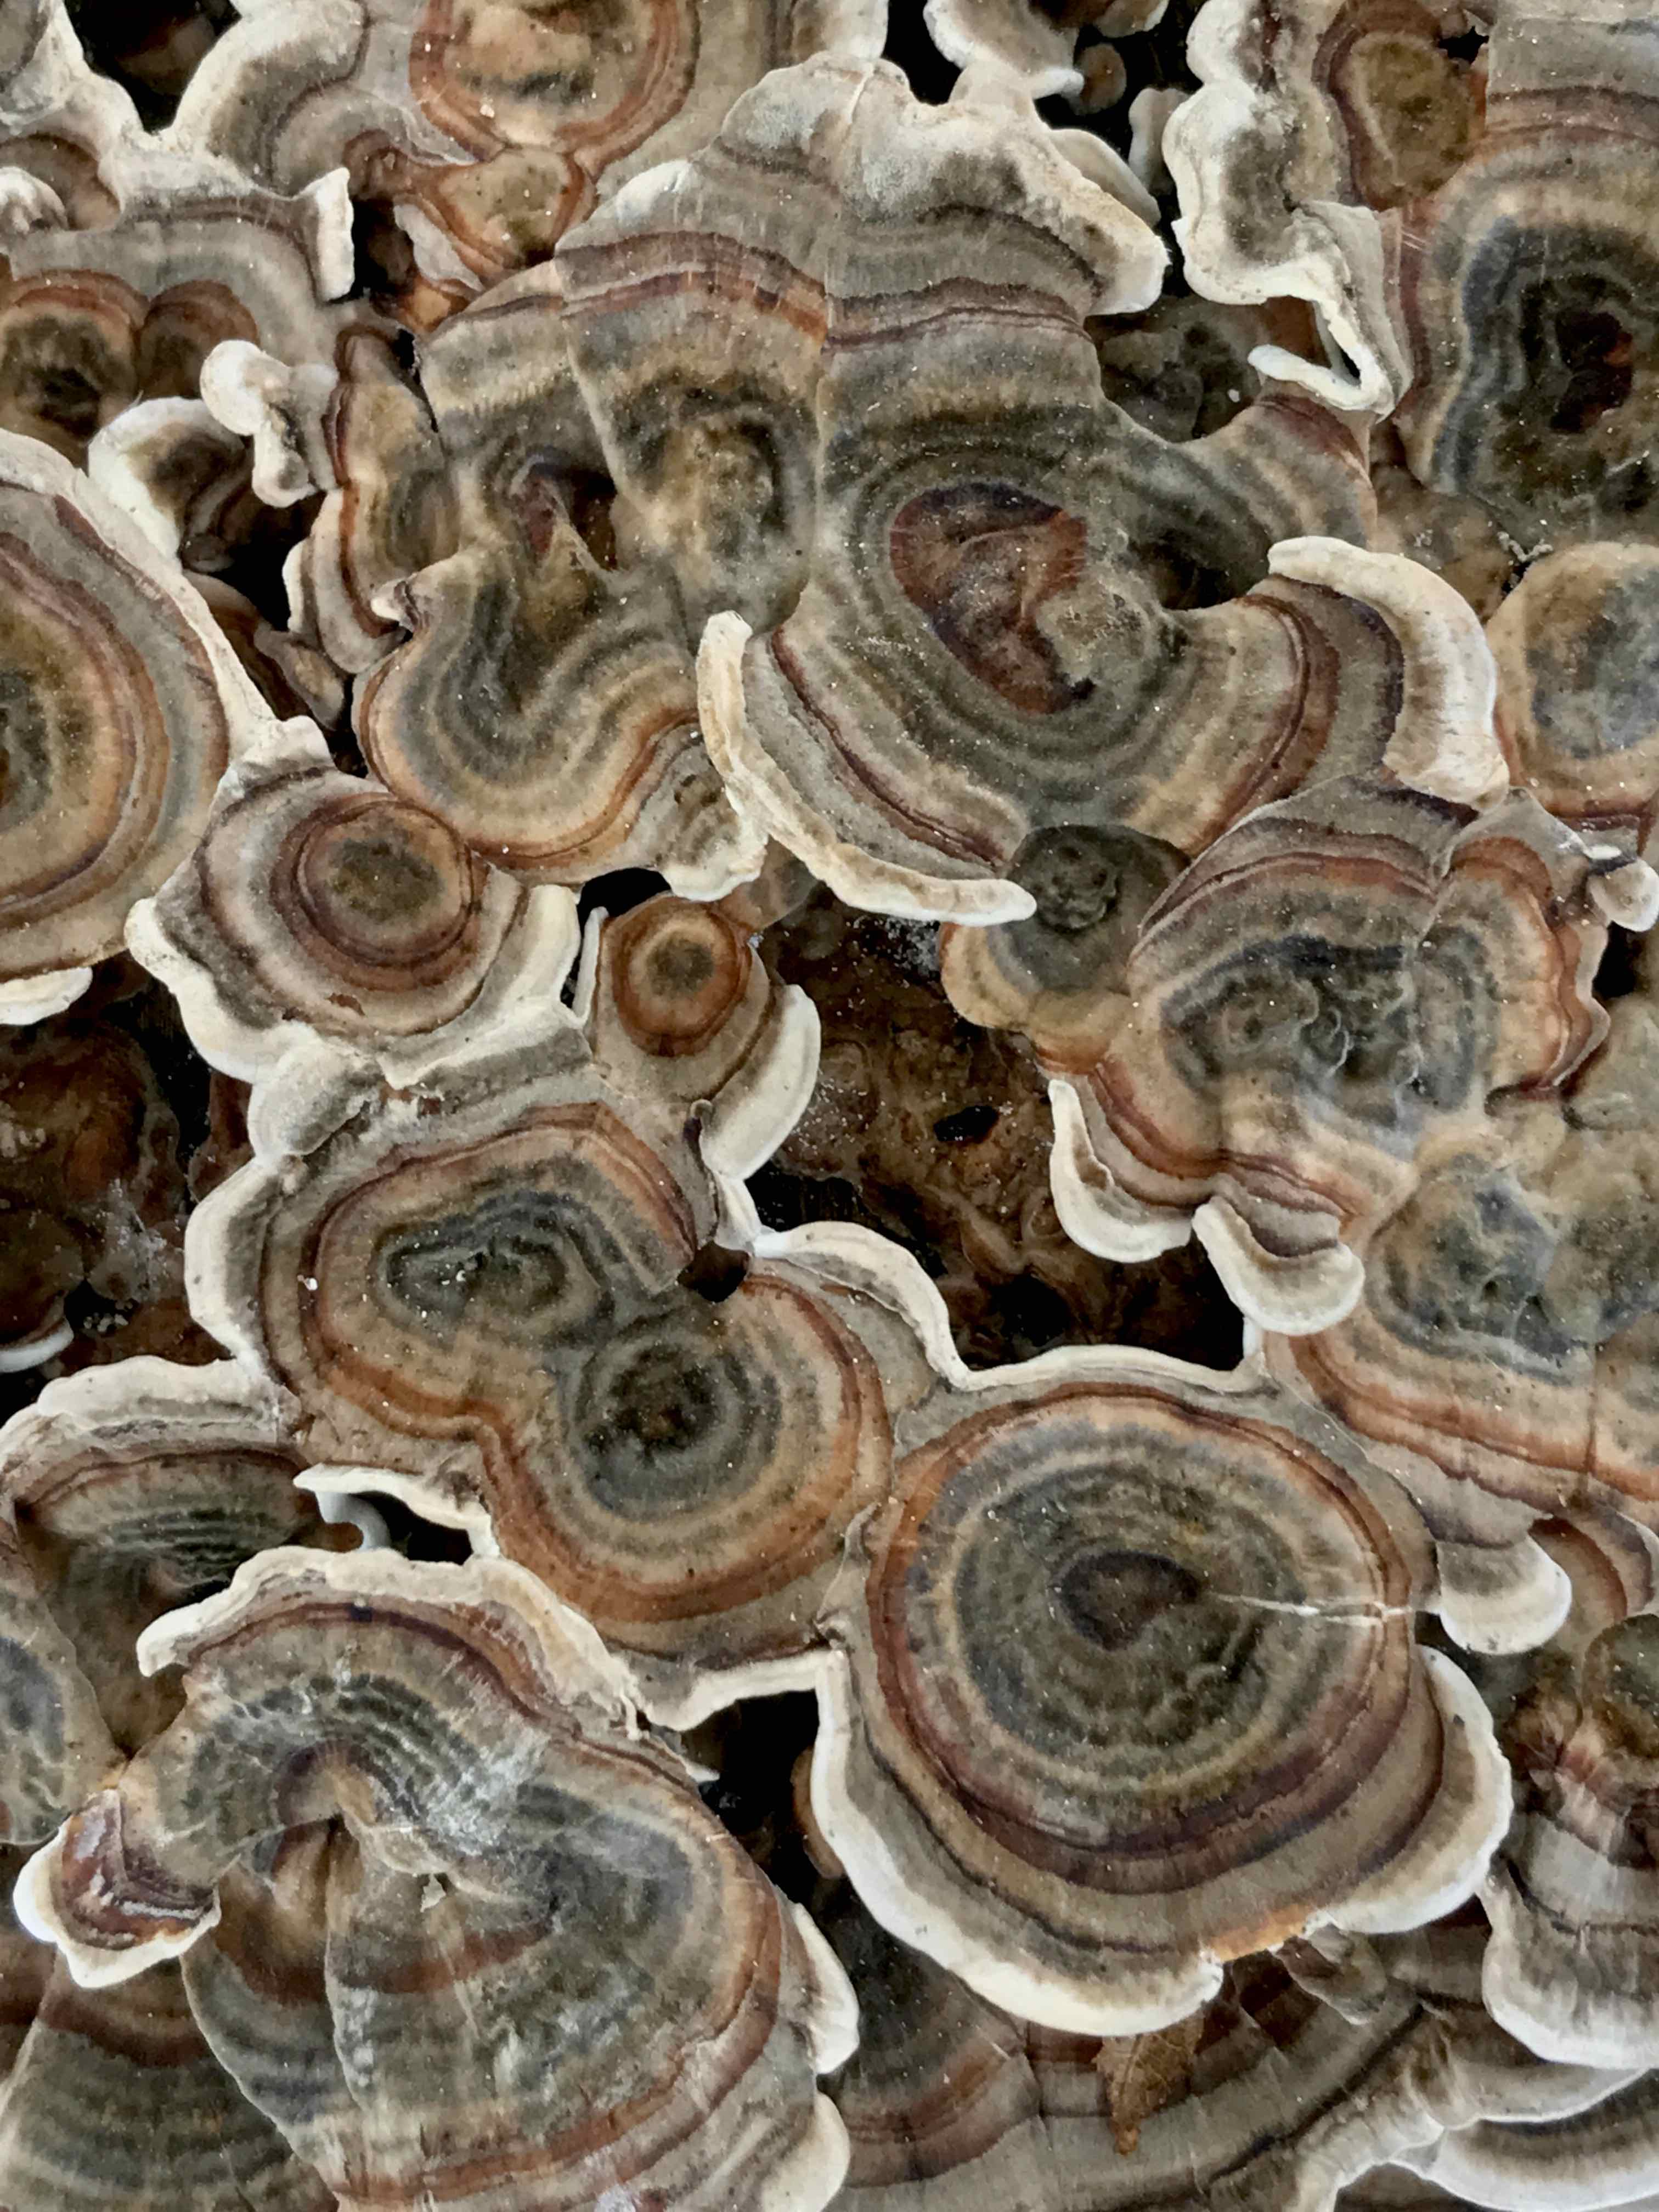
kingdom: Fungi
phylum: Basidiomycota
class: Agaricomycetes
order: Polyporales
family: Polyporaceae
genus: Trametes
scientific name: Trametes versicolor
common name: broget læderporesvamp
